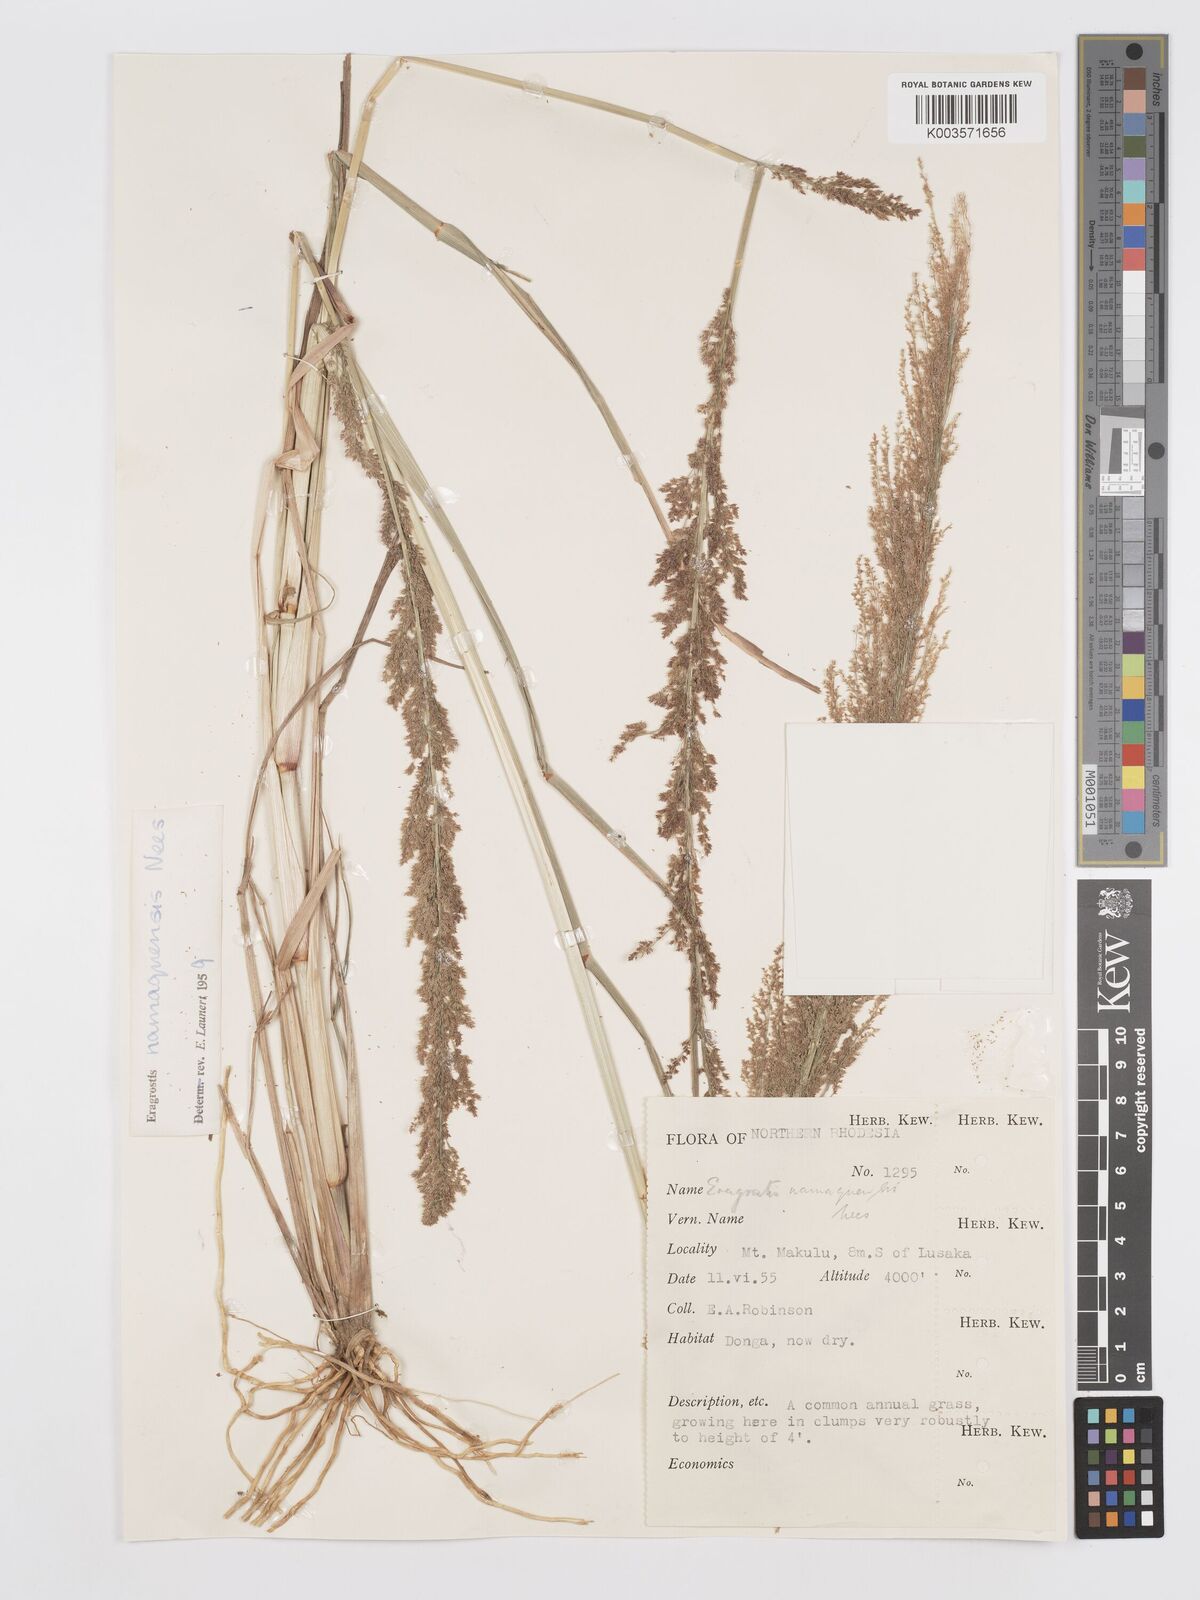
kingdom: Plantae
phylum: Tracheophyta
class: Liliopsida
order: Poales
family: Poaceae
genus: Eragrostis
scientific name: Eragrostis japonica
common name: Pond lovegrass
